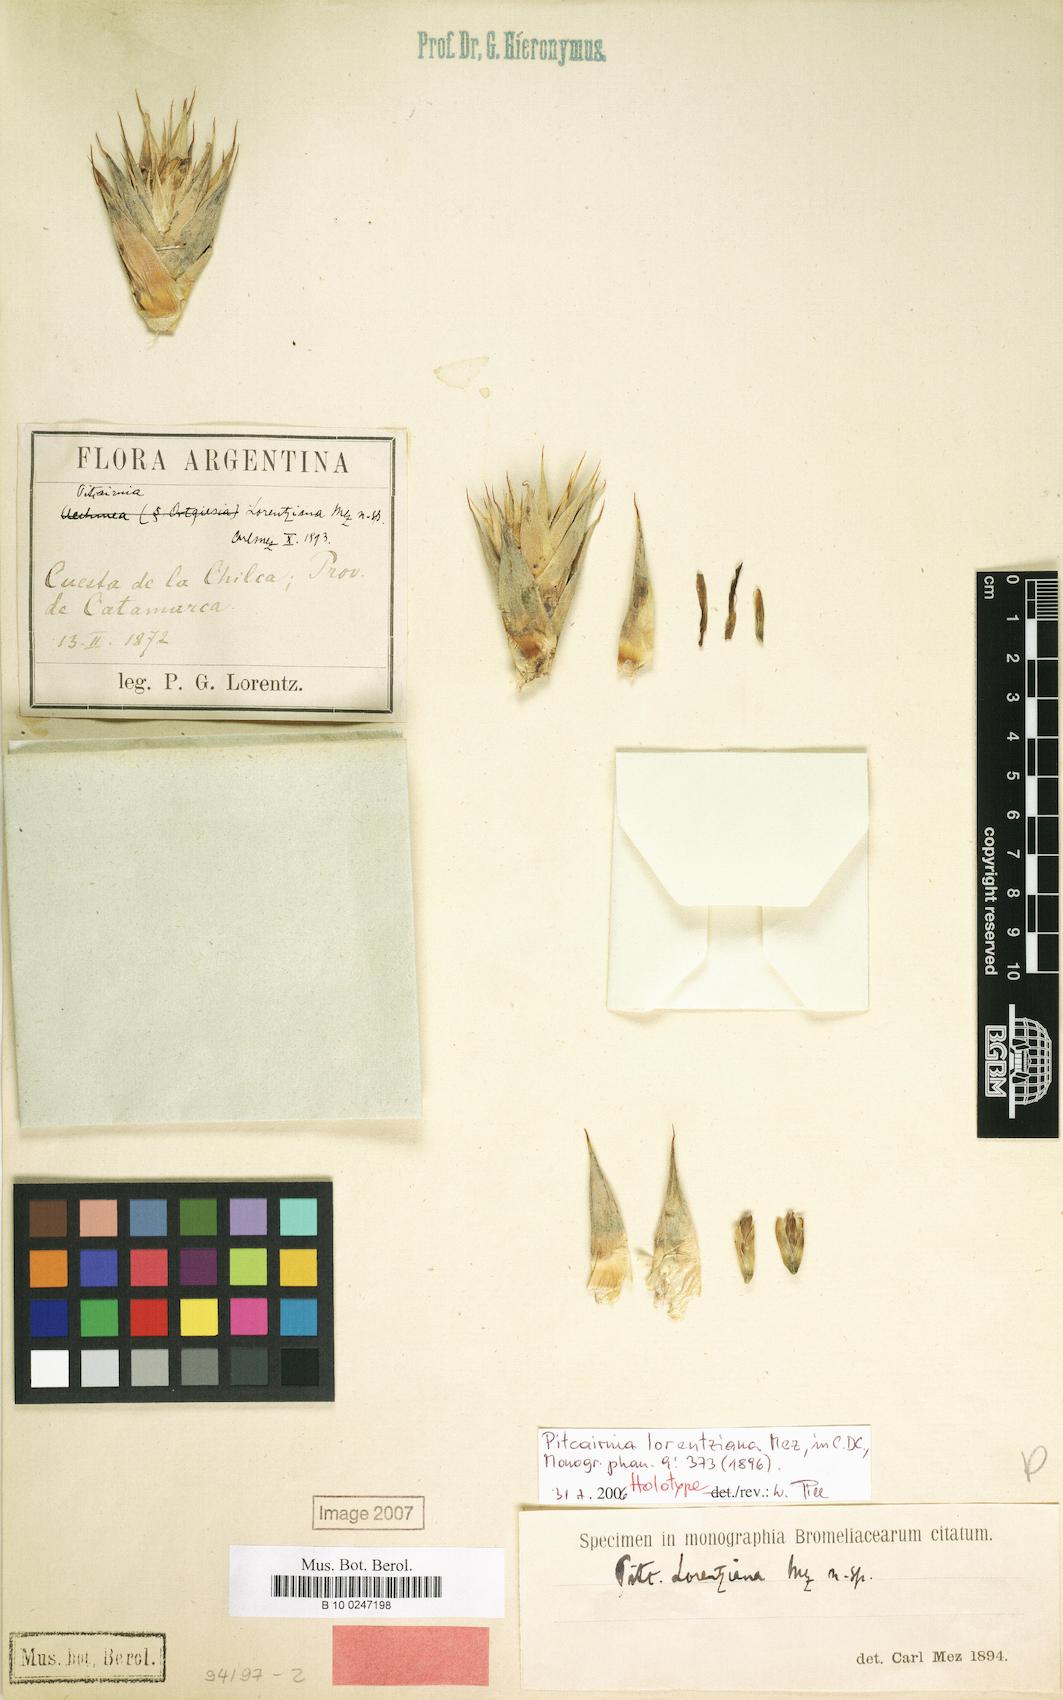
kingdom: Plantae
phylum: Tracheophyta
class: Liliopsida
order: Poales
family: Bromeliaceae
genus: Deuterocohnia
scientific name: Deuterocohnia brevifolia
